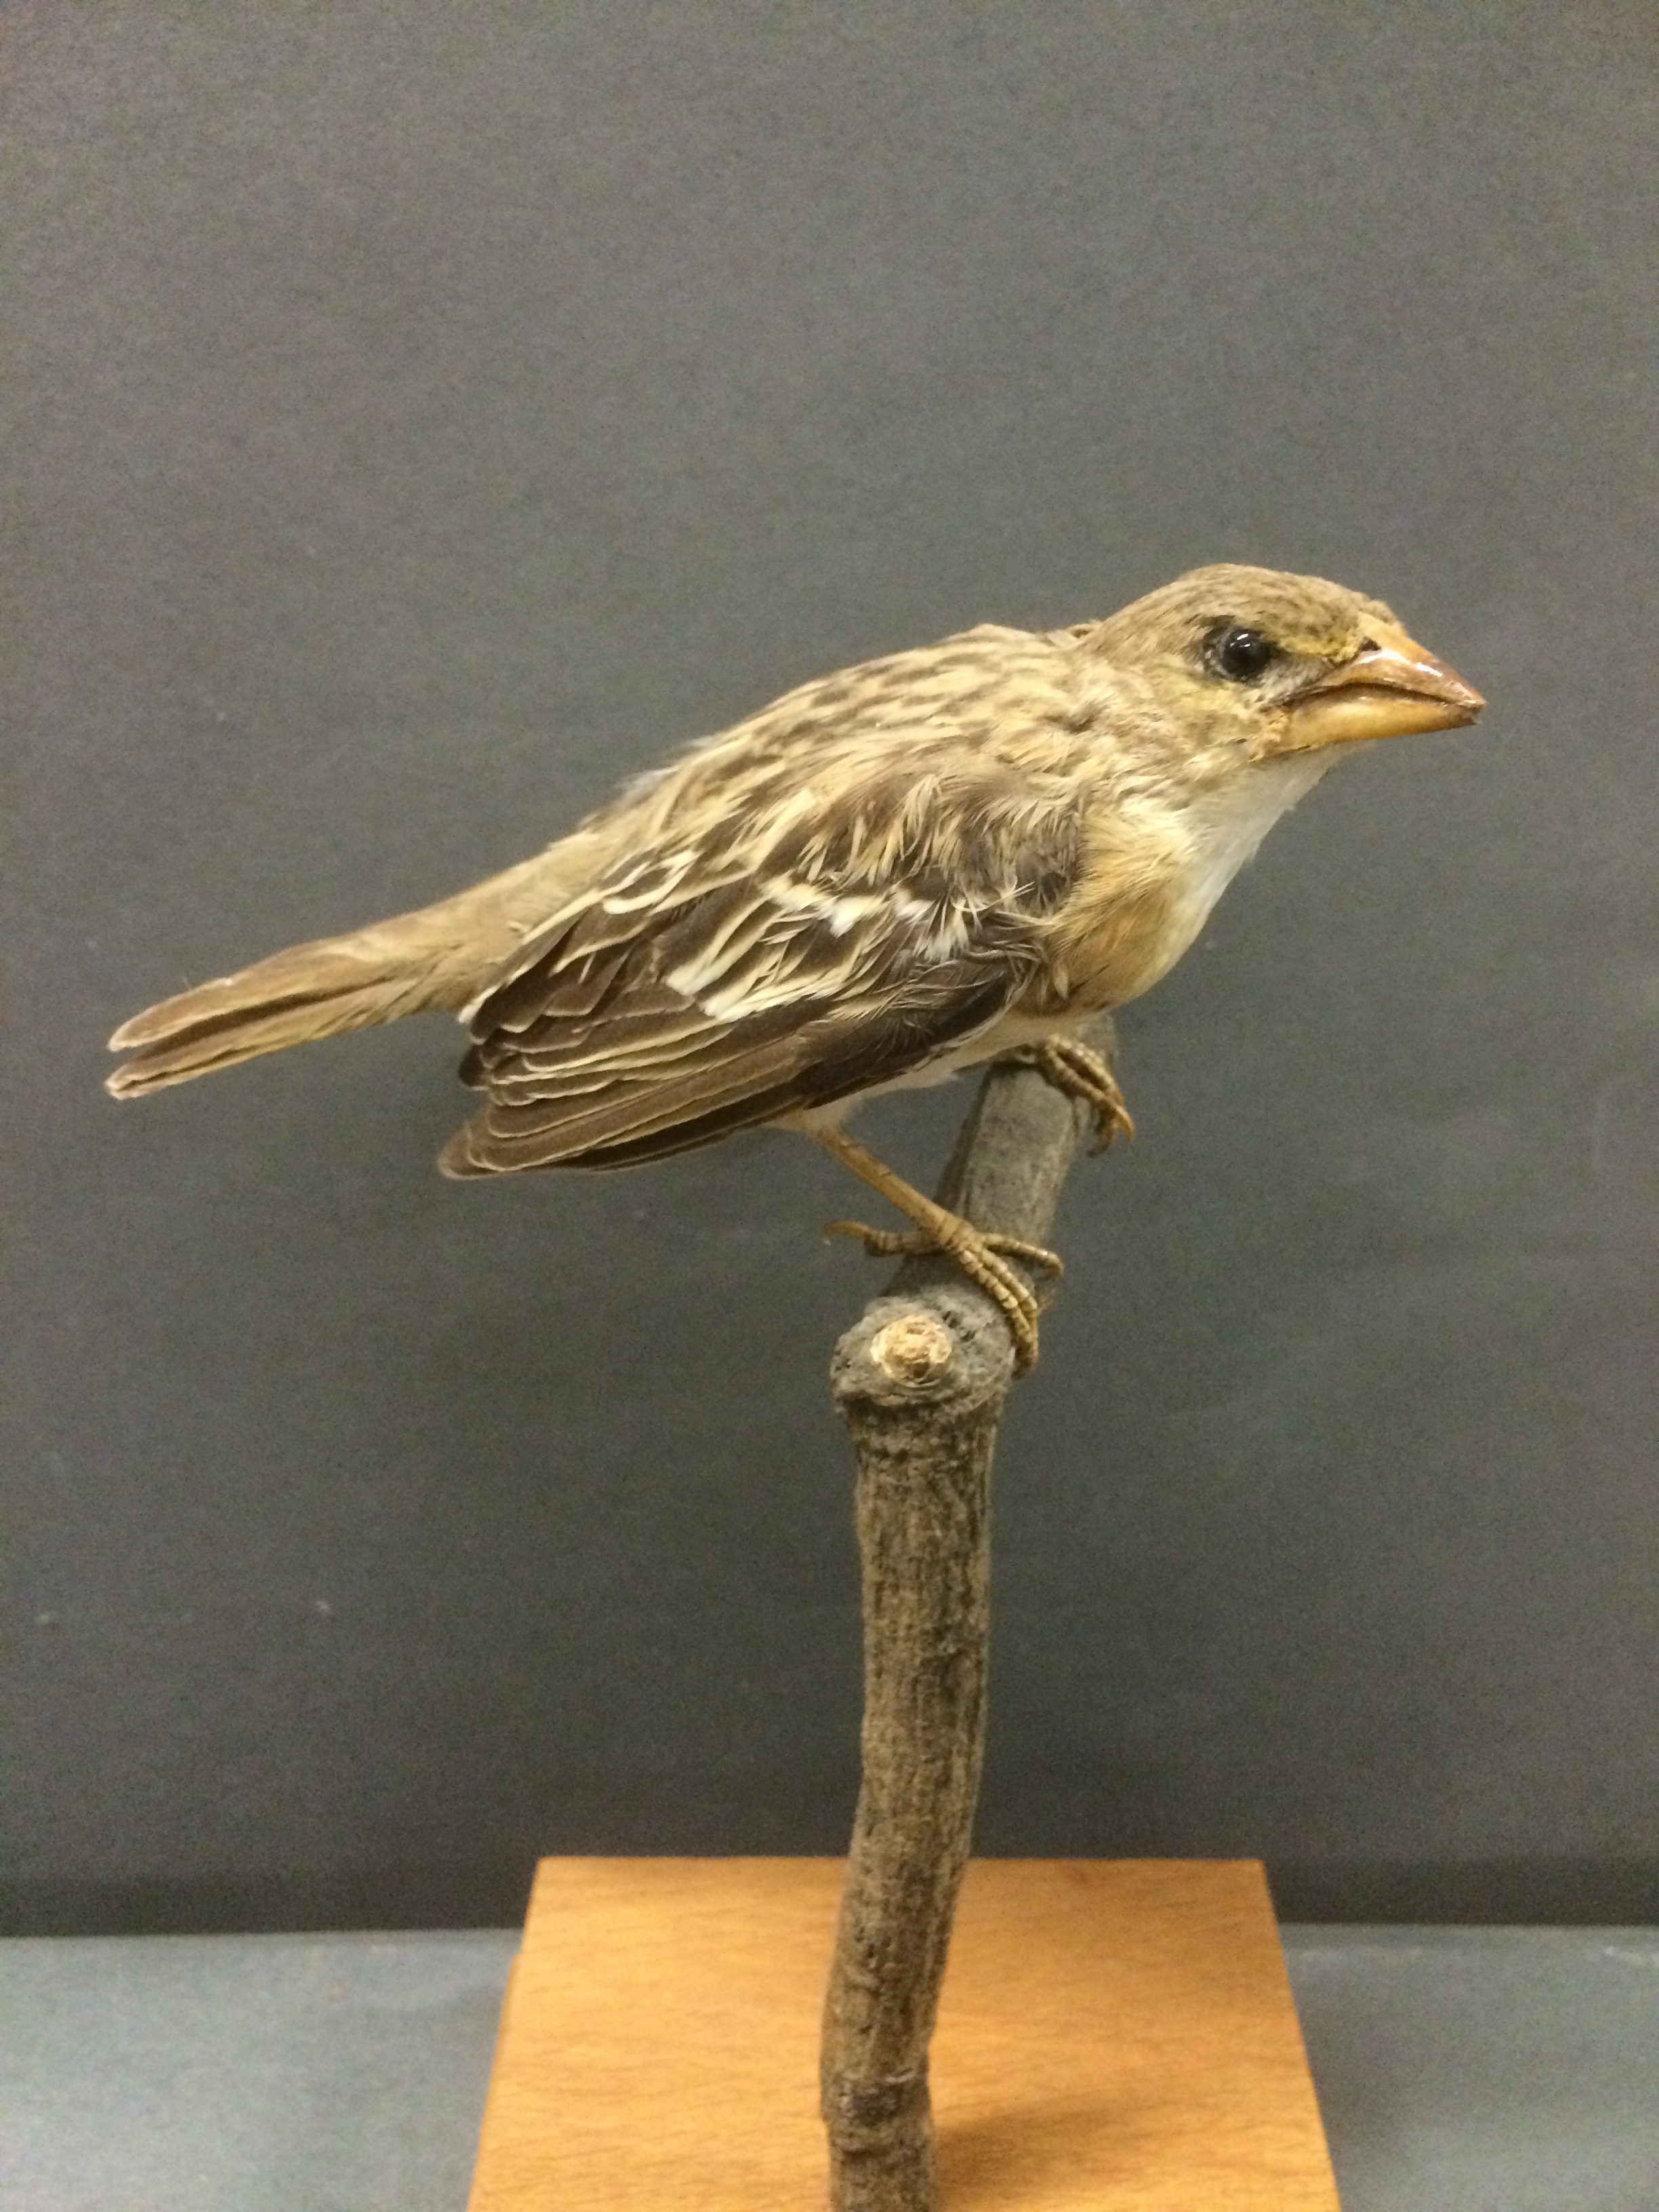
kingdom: Animalia
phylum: Chordata
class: Aves
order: Passeriformes
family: Ploceidae
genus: Ploceus
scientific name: Ploceus rubiginosus
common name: Chestnut weaver
